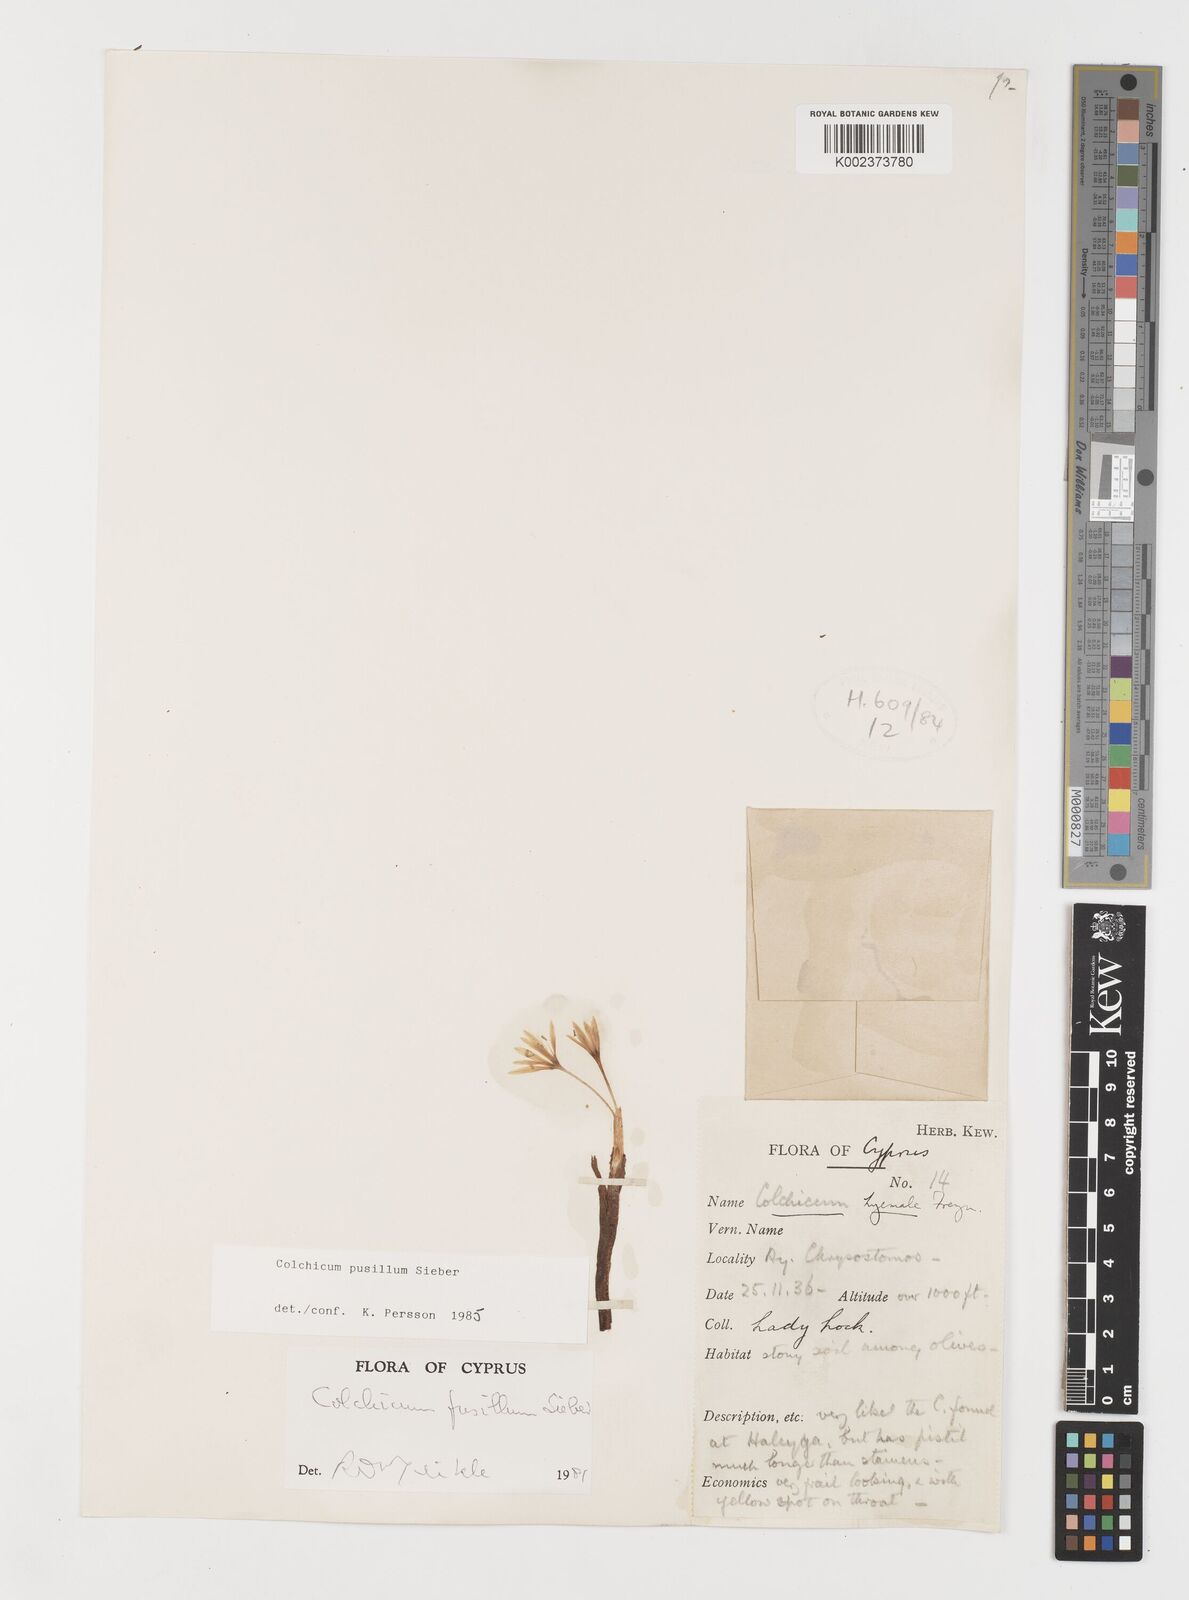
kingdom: Plantae
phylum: Tracheophyta
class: Liliopsida
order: Liliales
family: Colchicaceae
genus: Colchicum
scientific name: Colchicum pusillum
